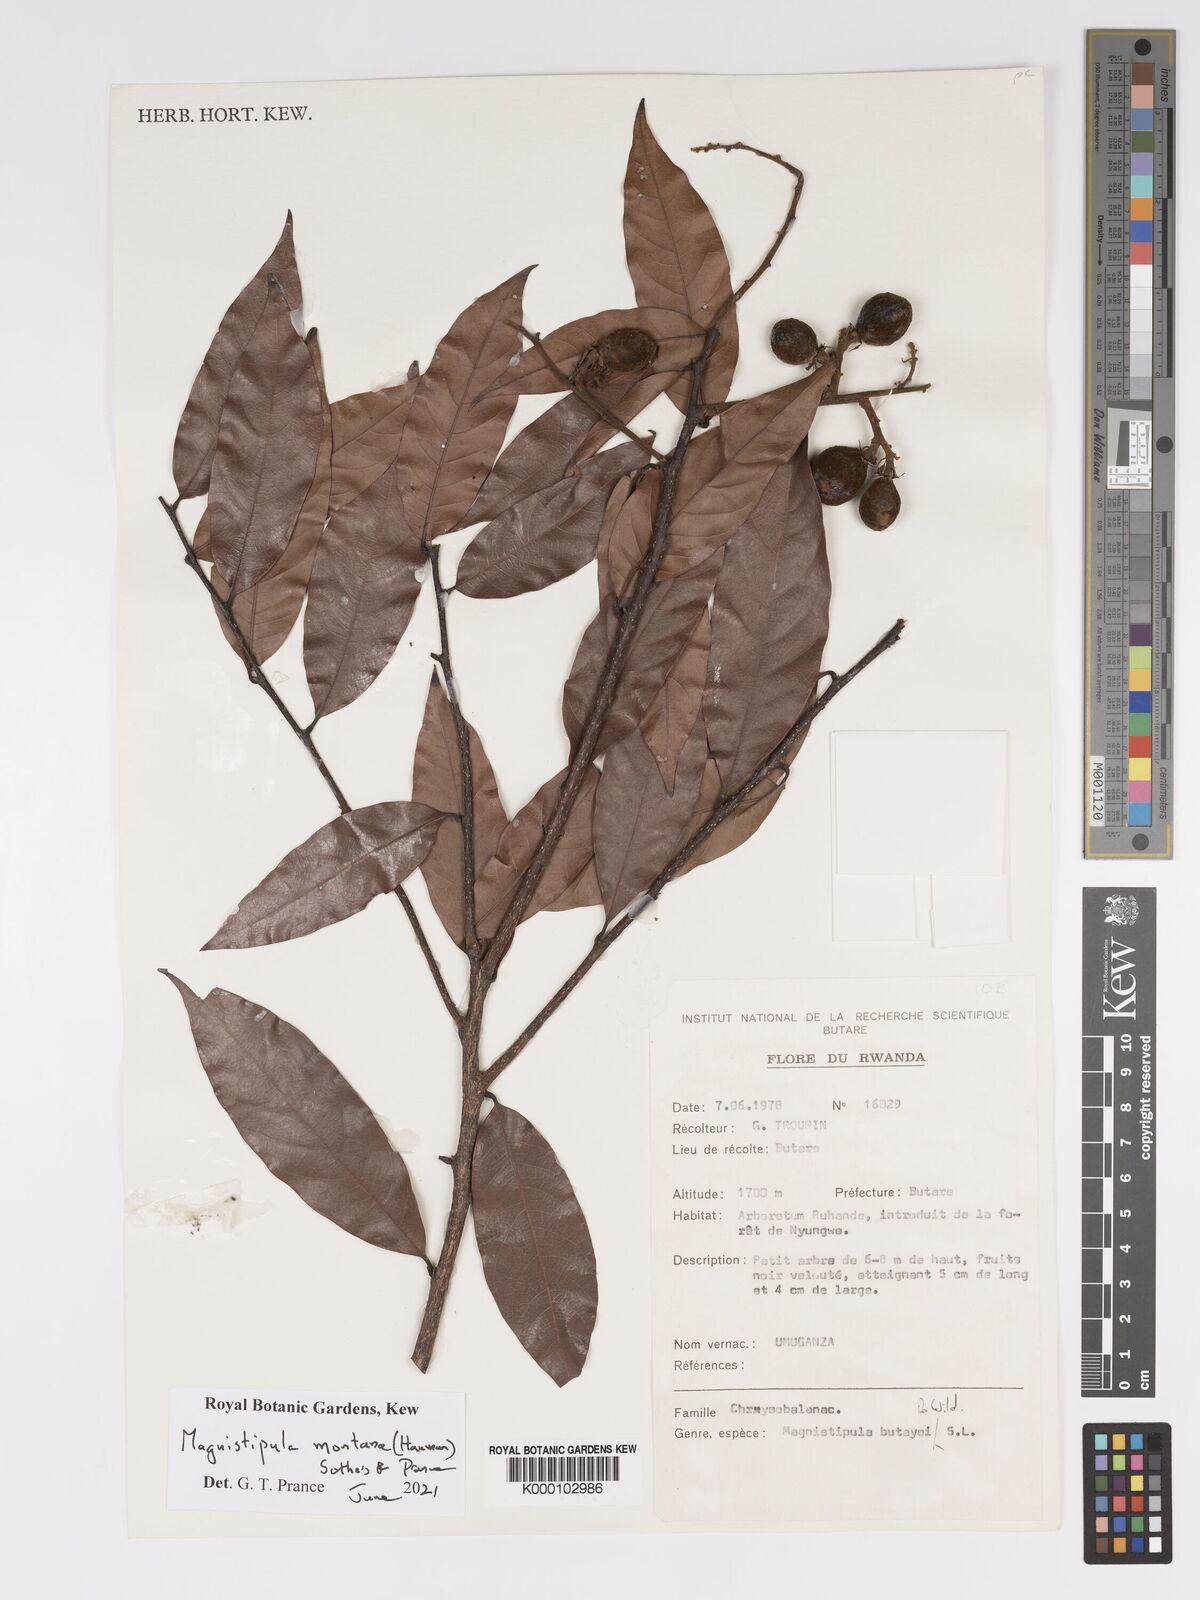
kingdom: Plantae
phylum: Tracheophyta
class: Magnoliopsida
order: Malpighiales
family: Chrysobalanaceae
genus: Magnistipula
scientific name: Magnistipula butayei
